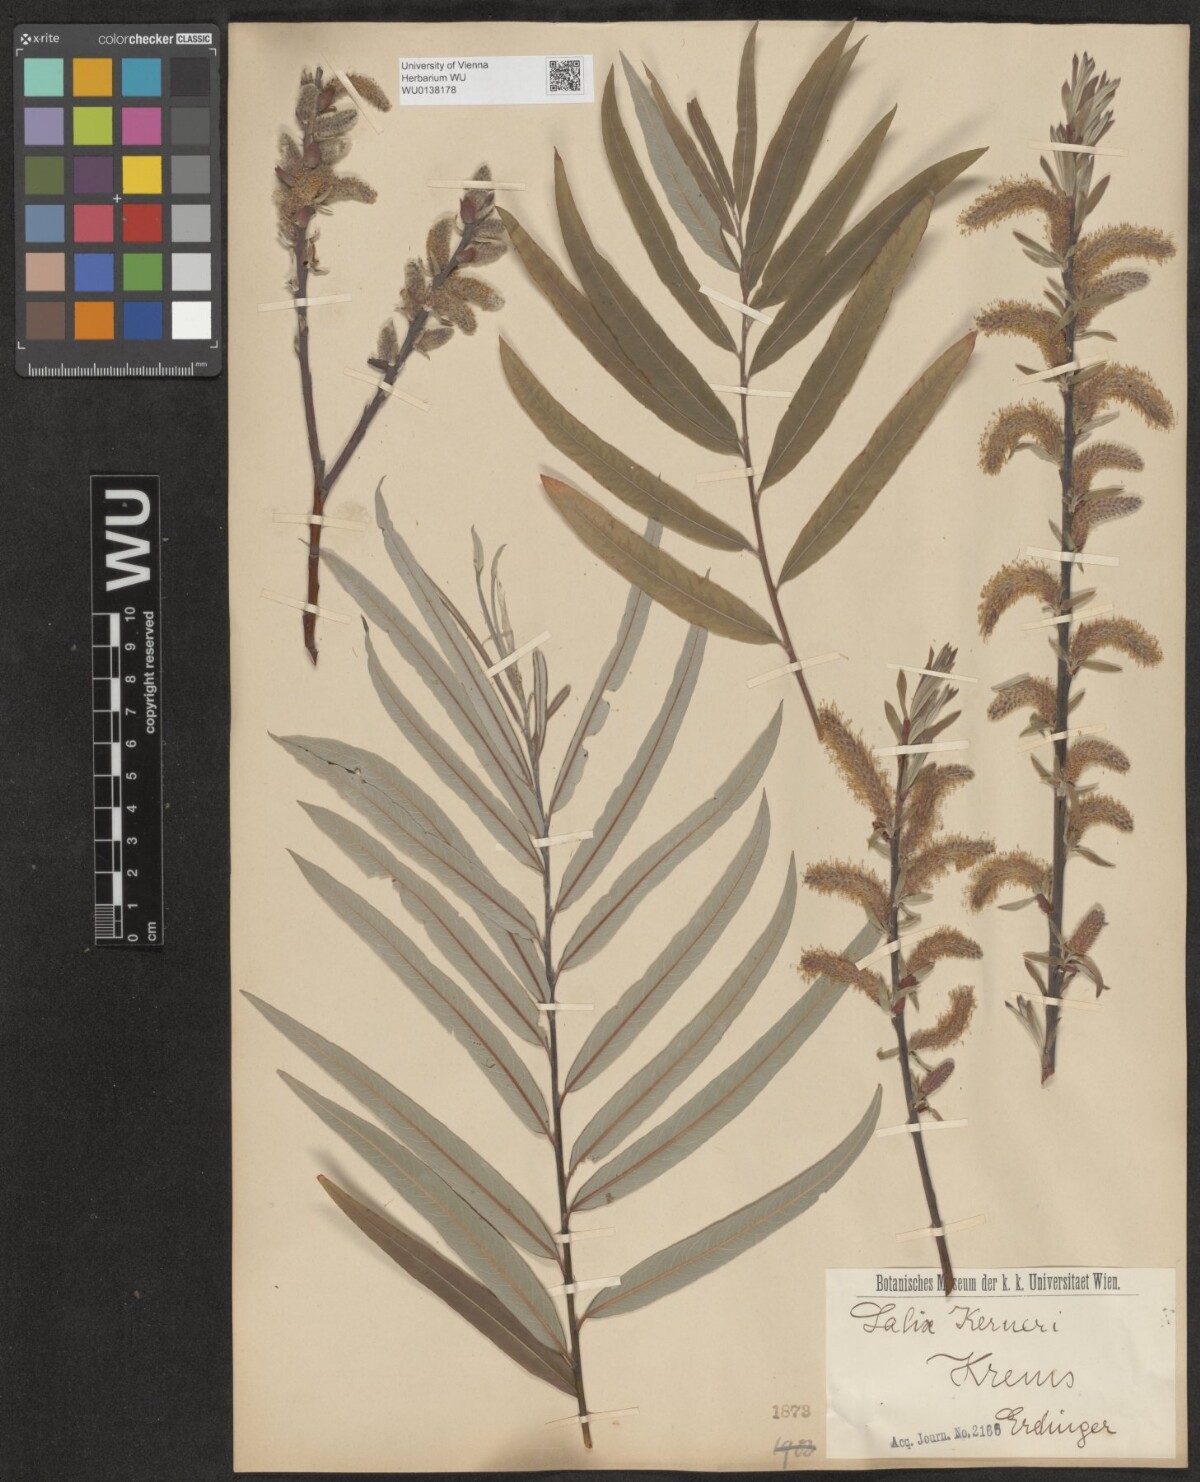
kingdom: Plantae
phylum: Tracheophyta
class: Magnoliopsida
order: Malpighiales
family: Salicaceae
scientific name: Salicaceae
